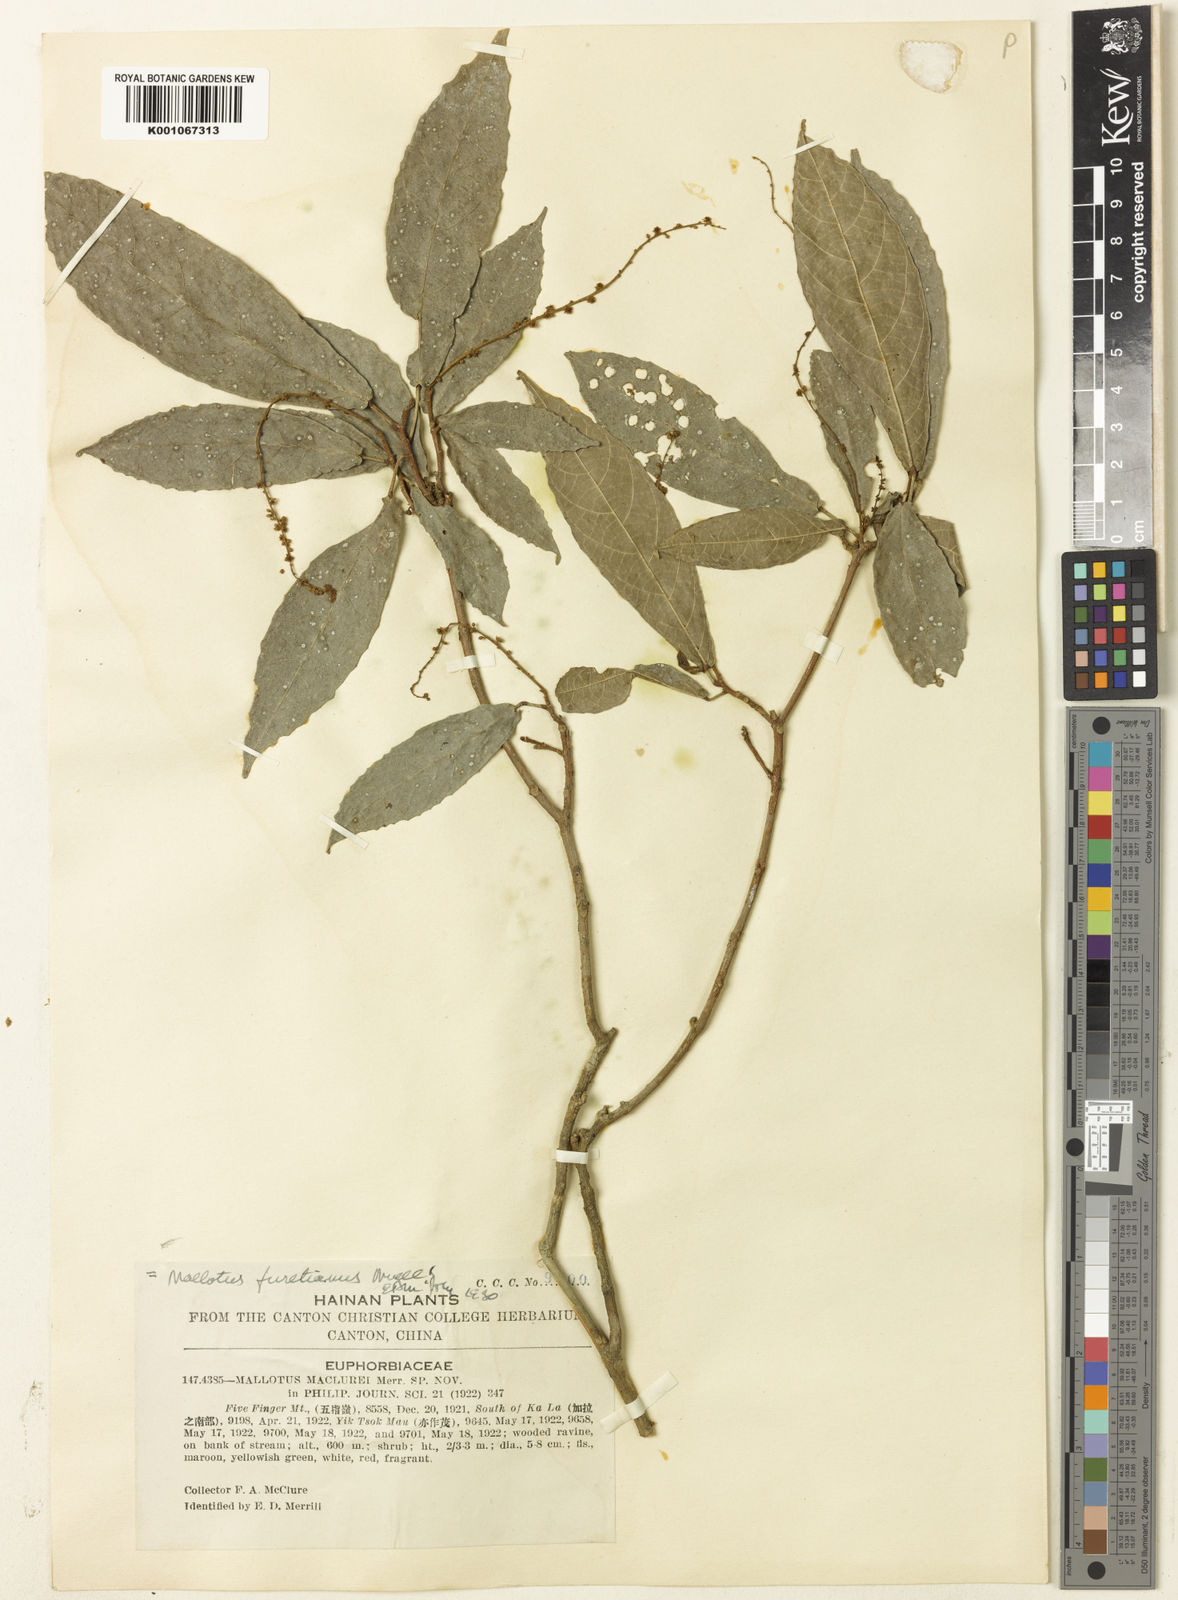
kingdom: Plantae
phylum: Tracheophyta
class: Magnoliopsida
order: Malpighiales
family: Euphorbiaceae
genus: Mallotus
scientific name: Mallotus peltatus
